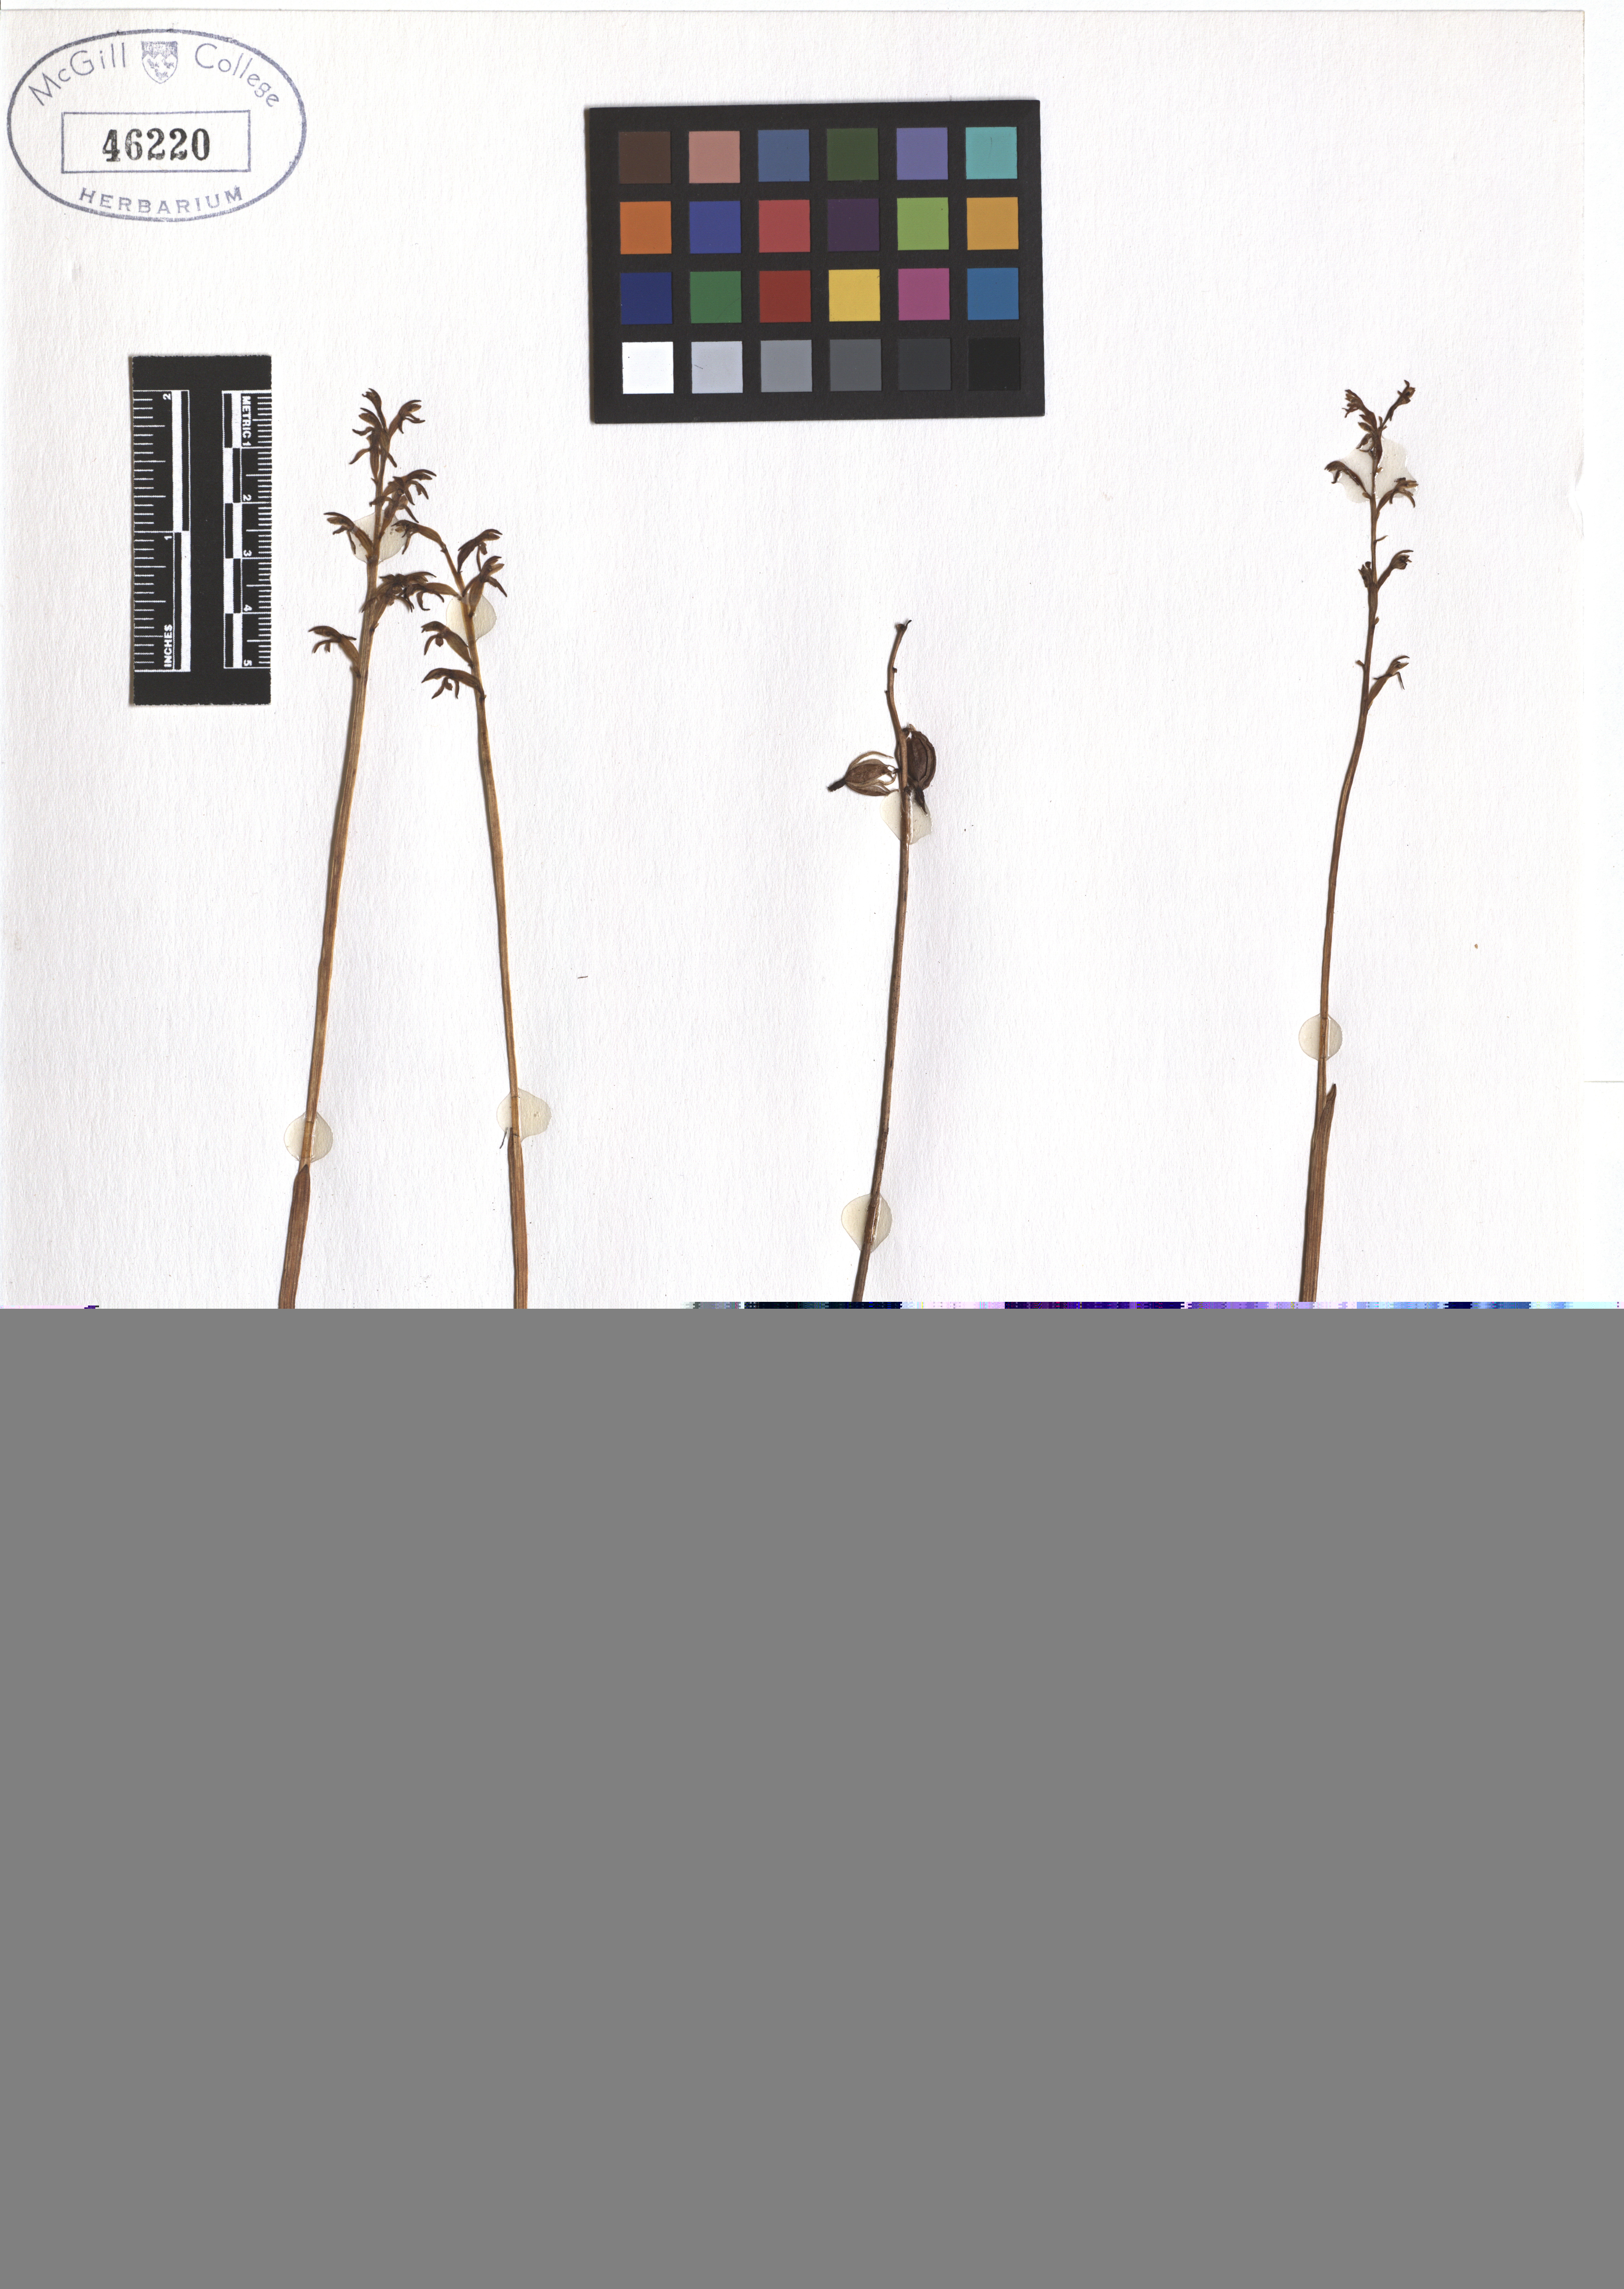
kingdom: Plantae
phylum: Tracheophyta
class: Liliopsida
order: Asparagales
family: Orchidaceae
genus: Corallorhiza
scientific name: Corallorhiza trifida
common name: Yellow coralroot
